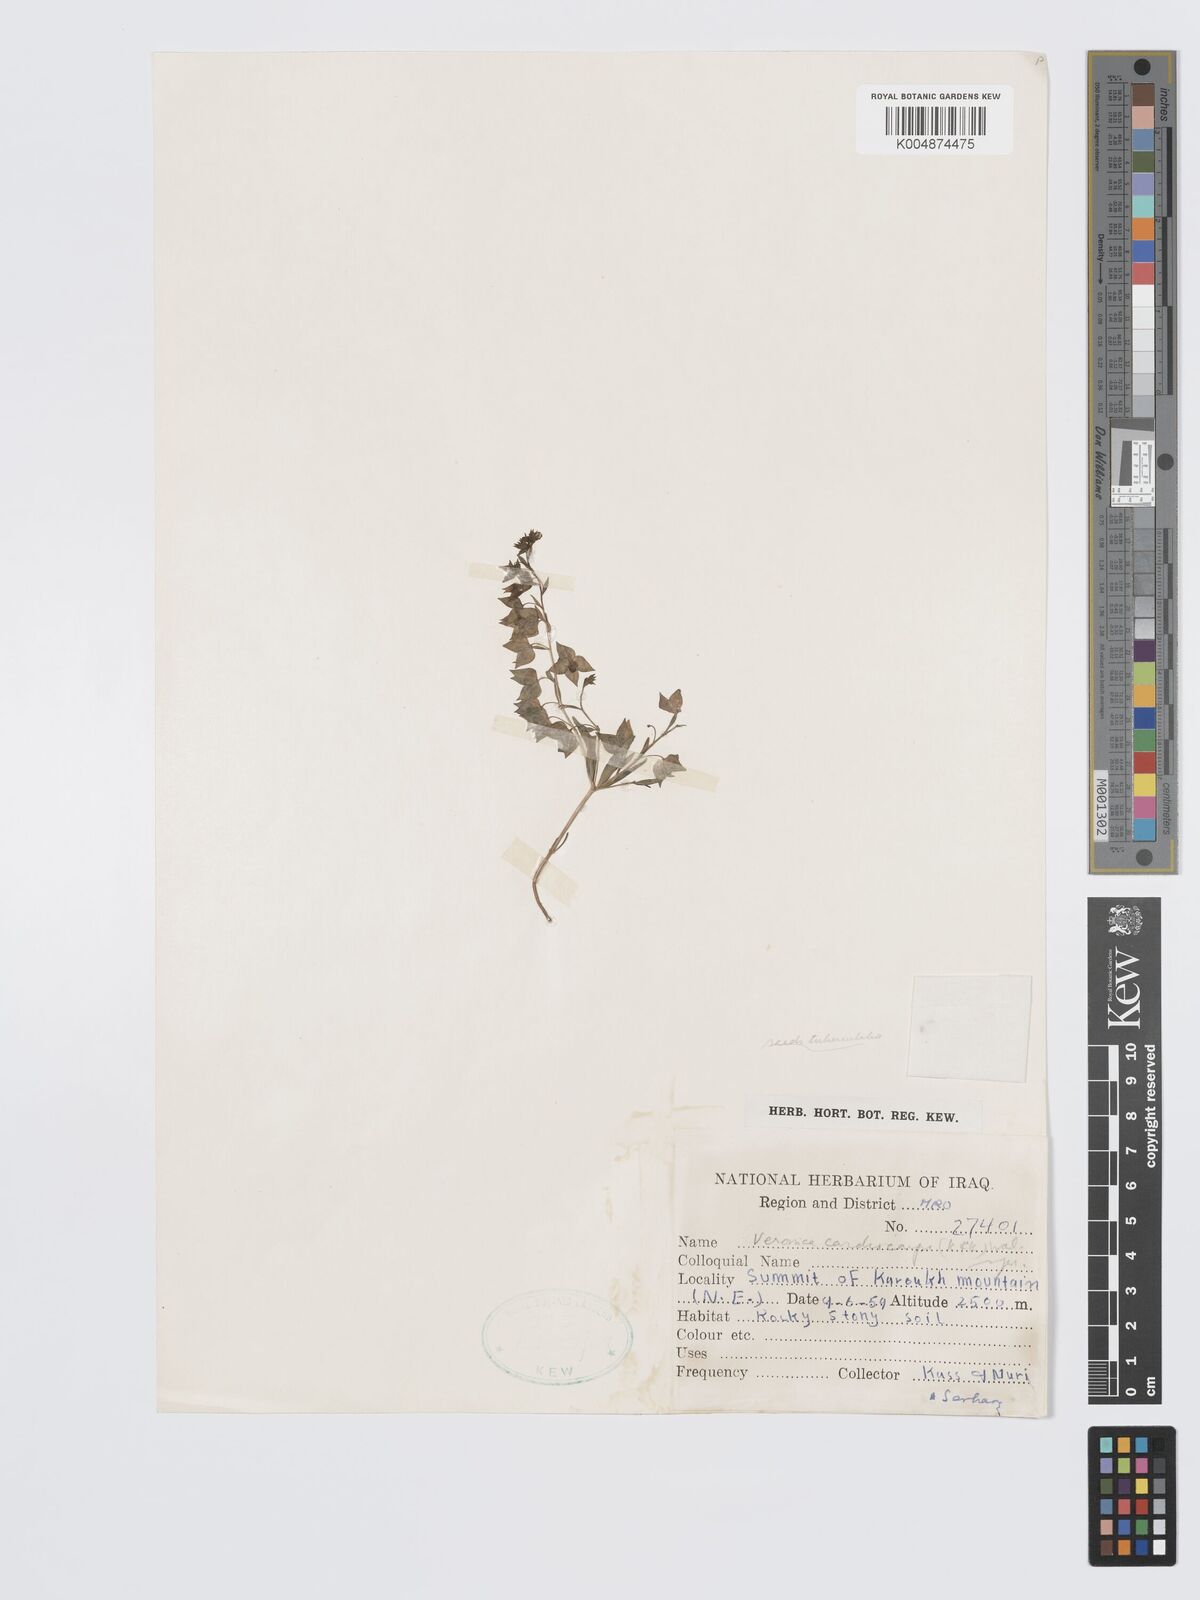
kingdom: Plantae
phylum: Tracheophyta
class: Magnoliopsida
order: Lamiales
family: Plantaginaceae
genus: Veronica
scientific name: Veronica intercedens
